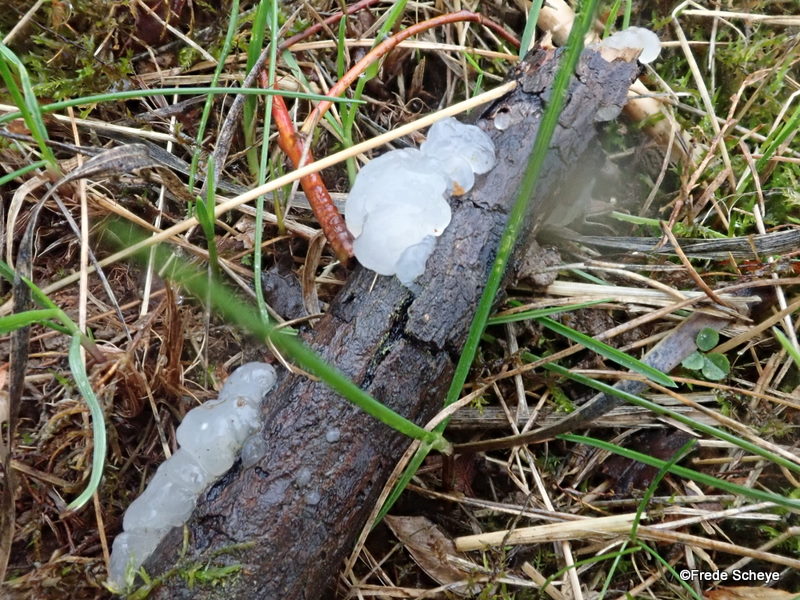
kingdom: Fungi
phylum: Basidiomycota
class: Agaricomycetes
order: Auriculariales
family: Hyaloriaceae
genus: Myxarium
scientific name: Myxarium nucleatum
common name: klar bævretop
